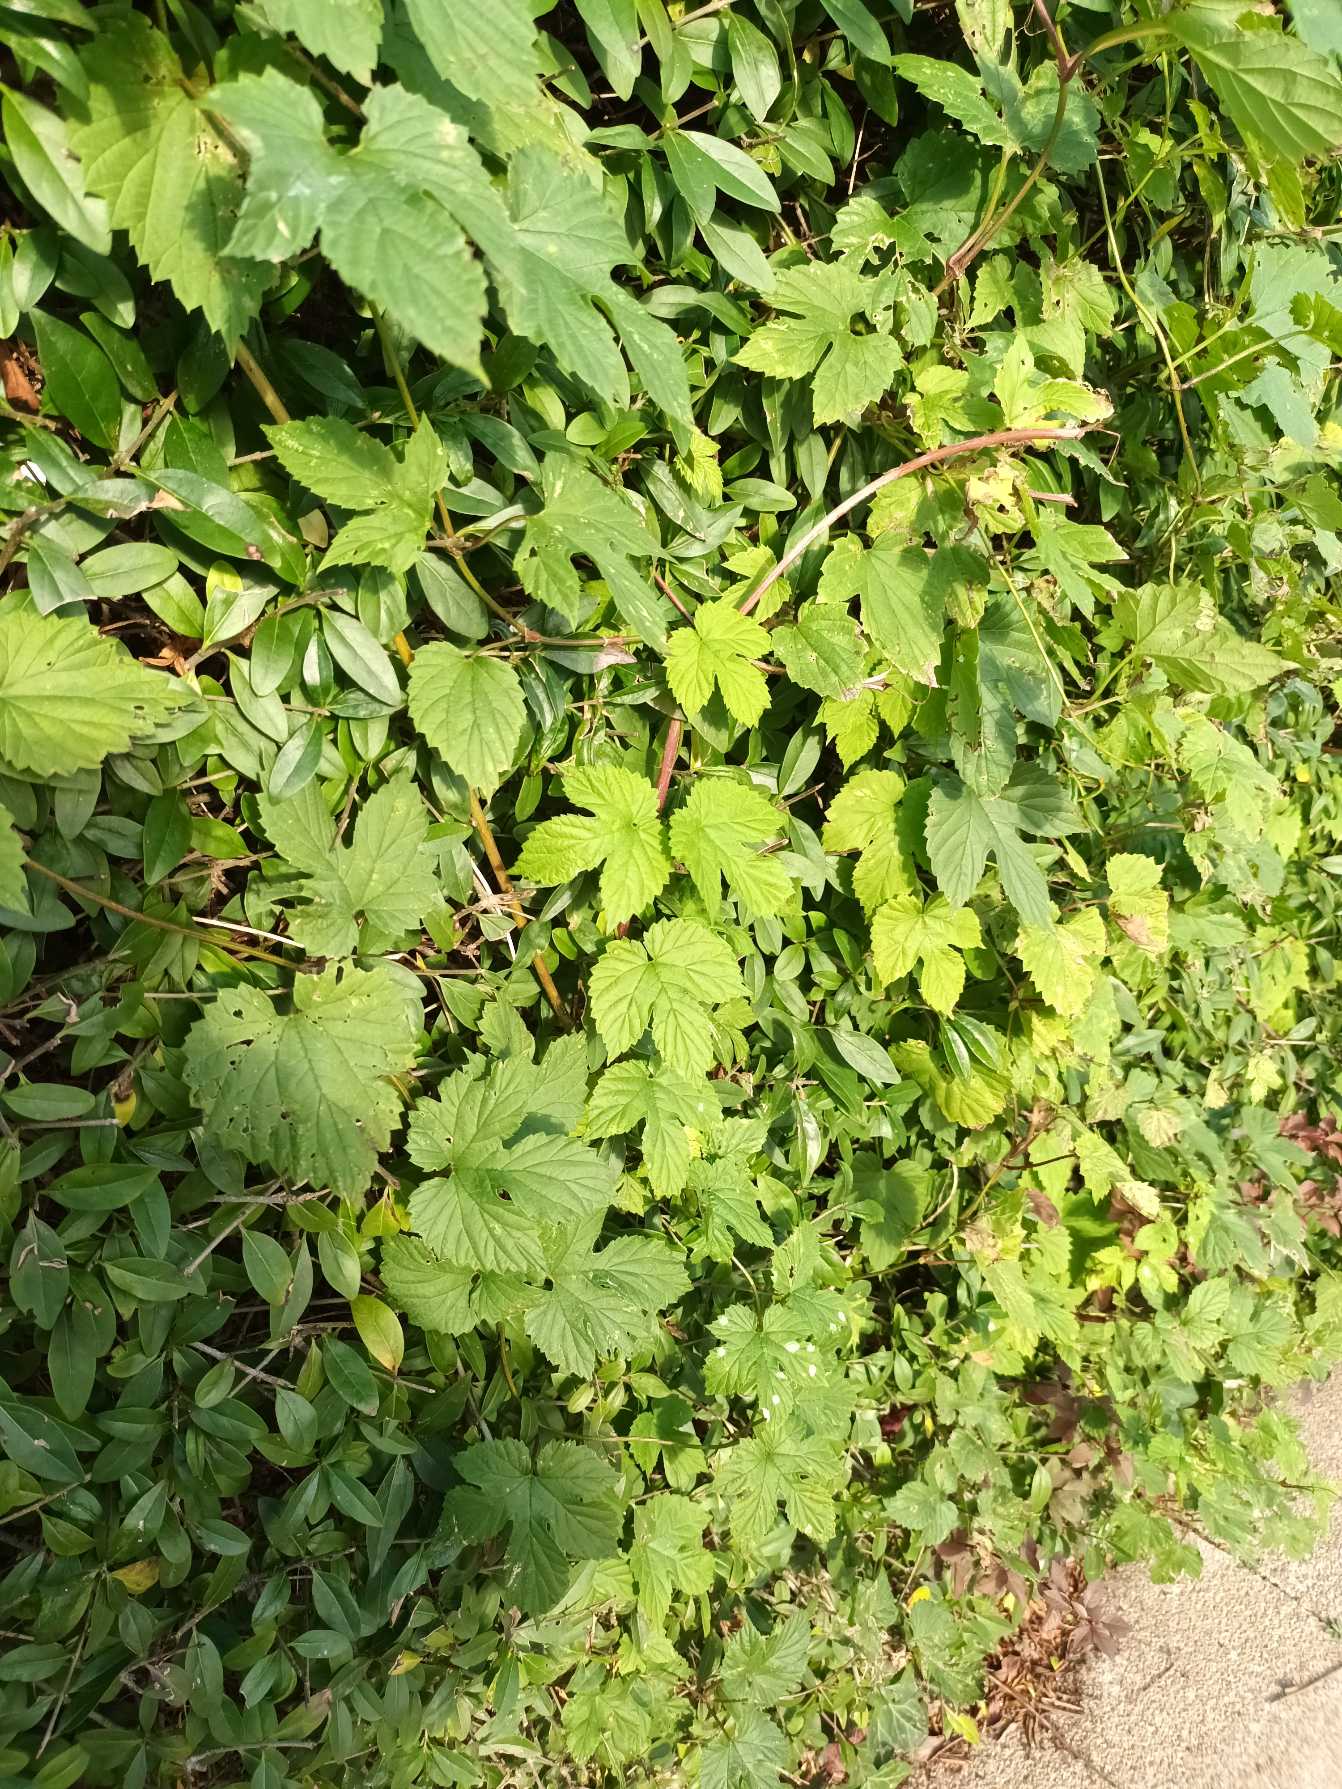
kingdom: Plantae
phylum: Tracheophyta
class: Magnoliopsida
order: Rosales
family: Cannabaceae
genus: Humulus
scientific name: Humulus lupulus
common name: Humle
